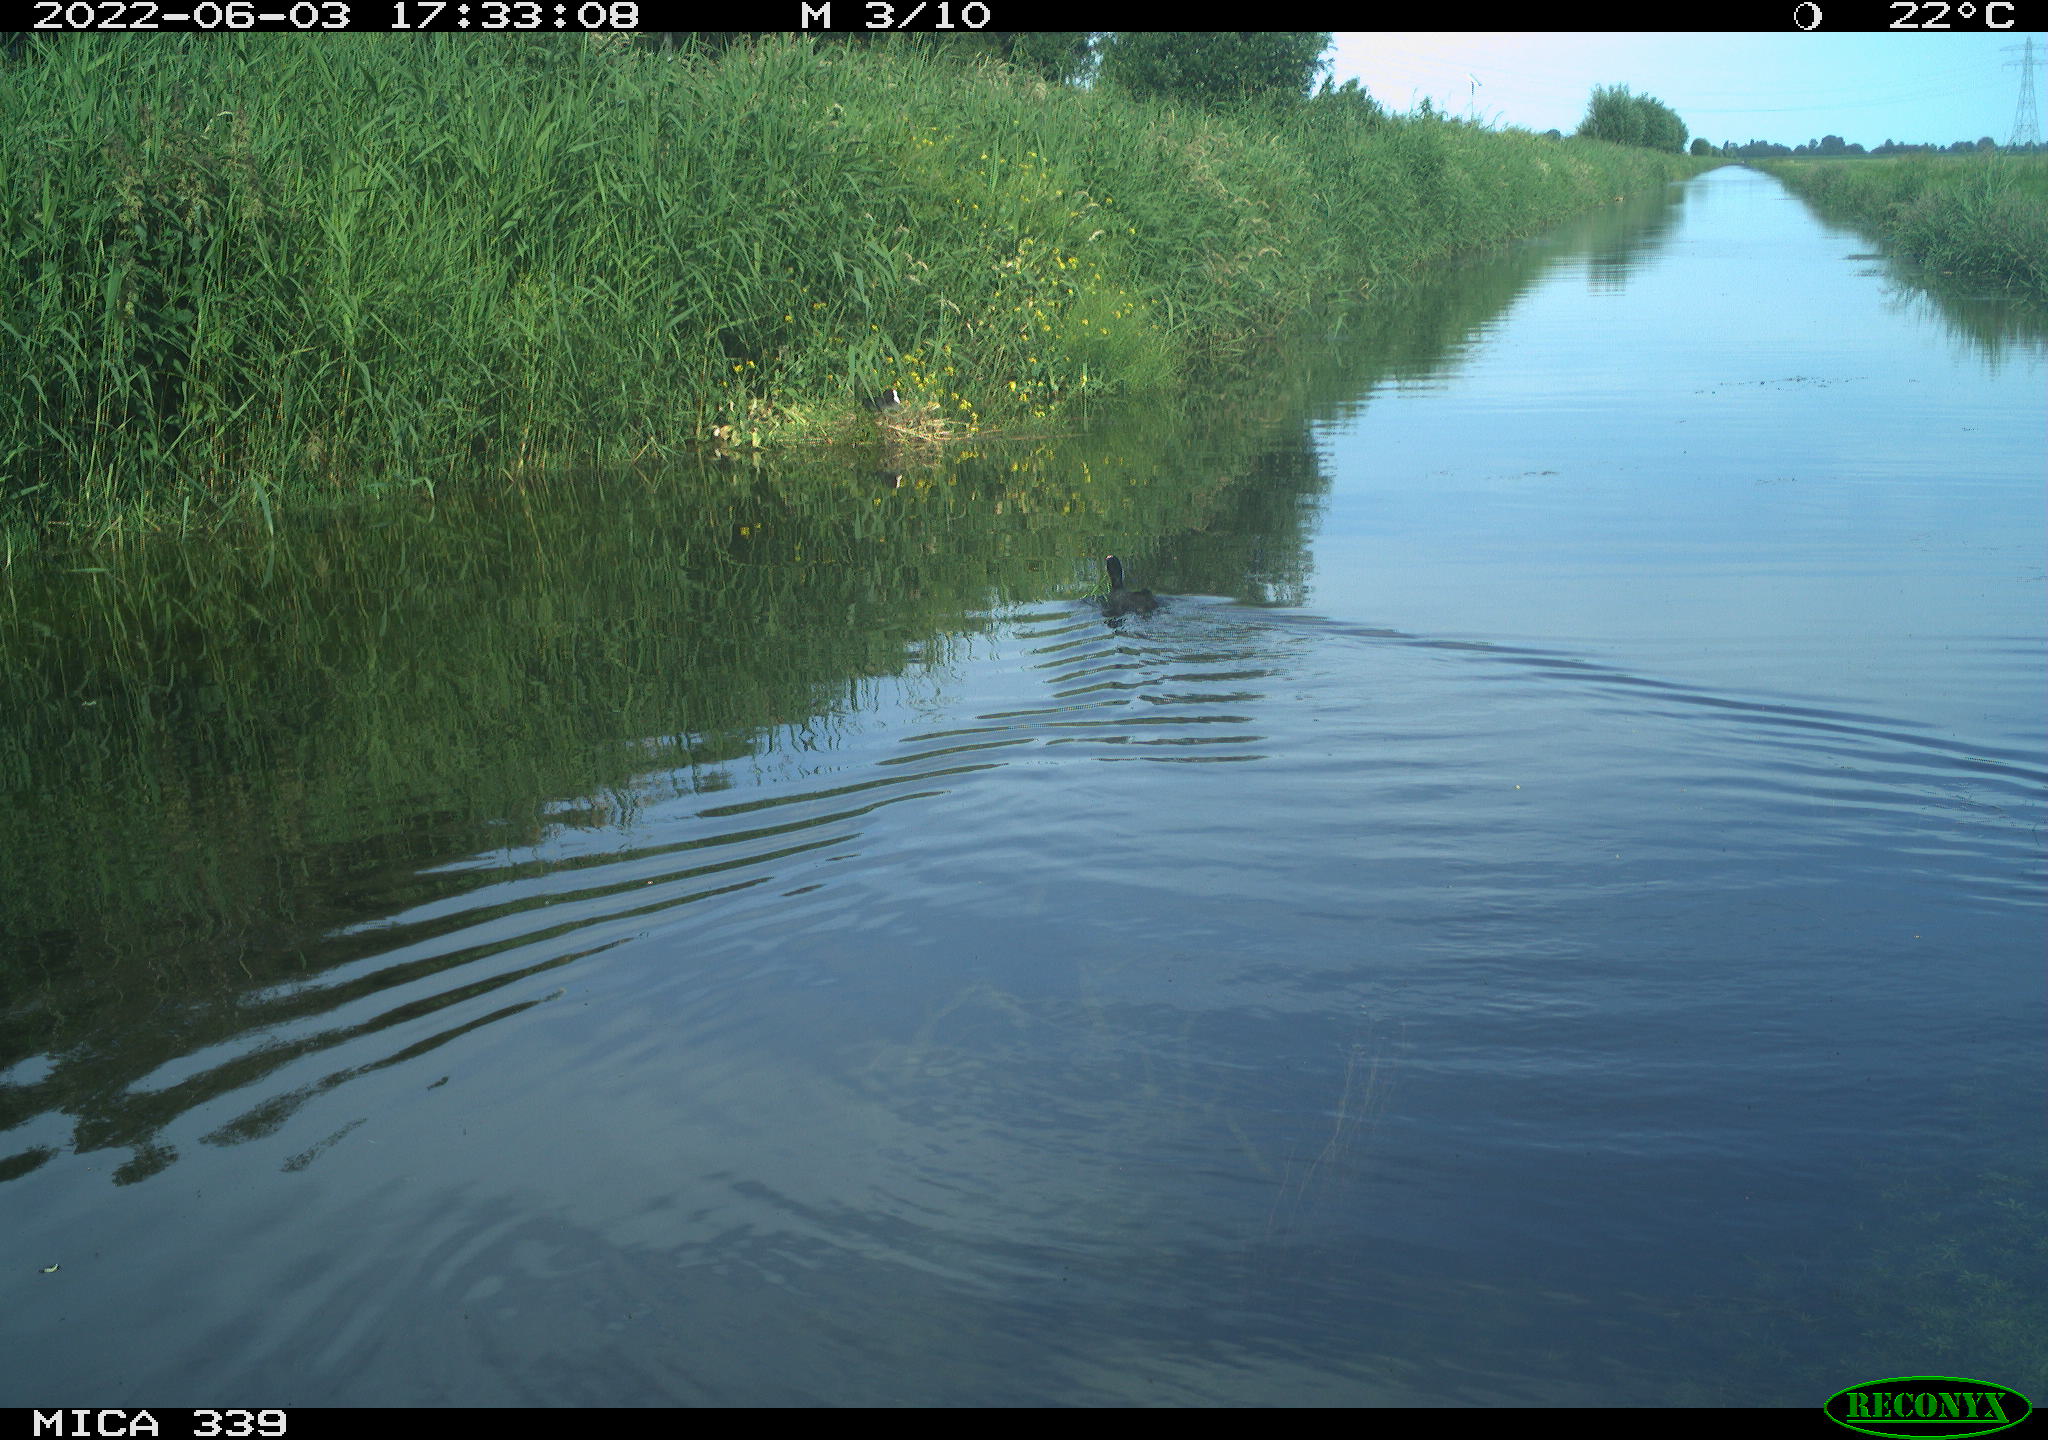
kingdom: Animalia
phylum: Chordata
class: Aves
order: Gruiformes
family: Rallidae
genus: Fulica
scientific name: Fulica atra
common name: Eurasian coot
